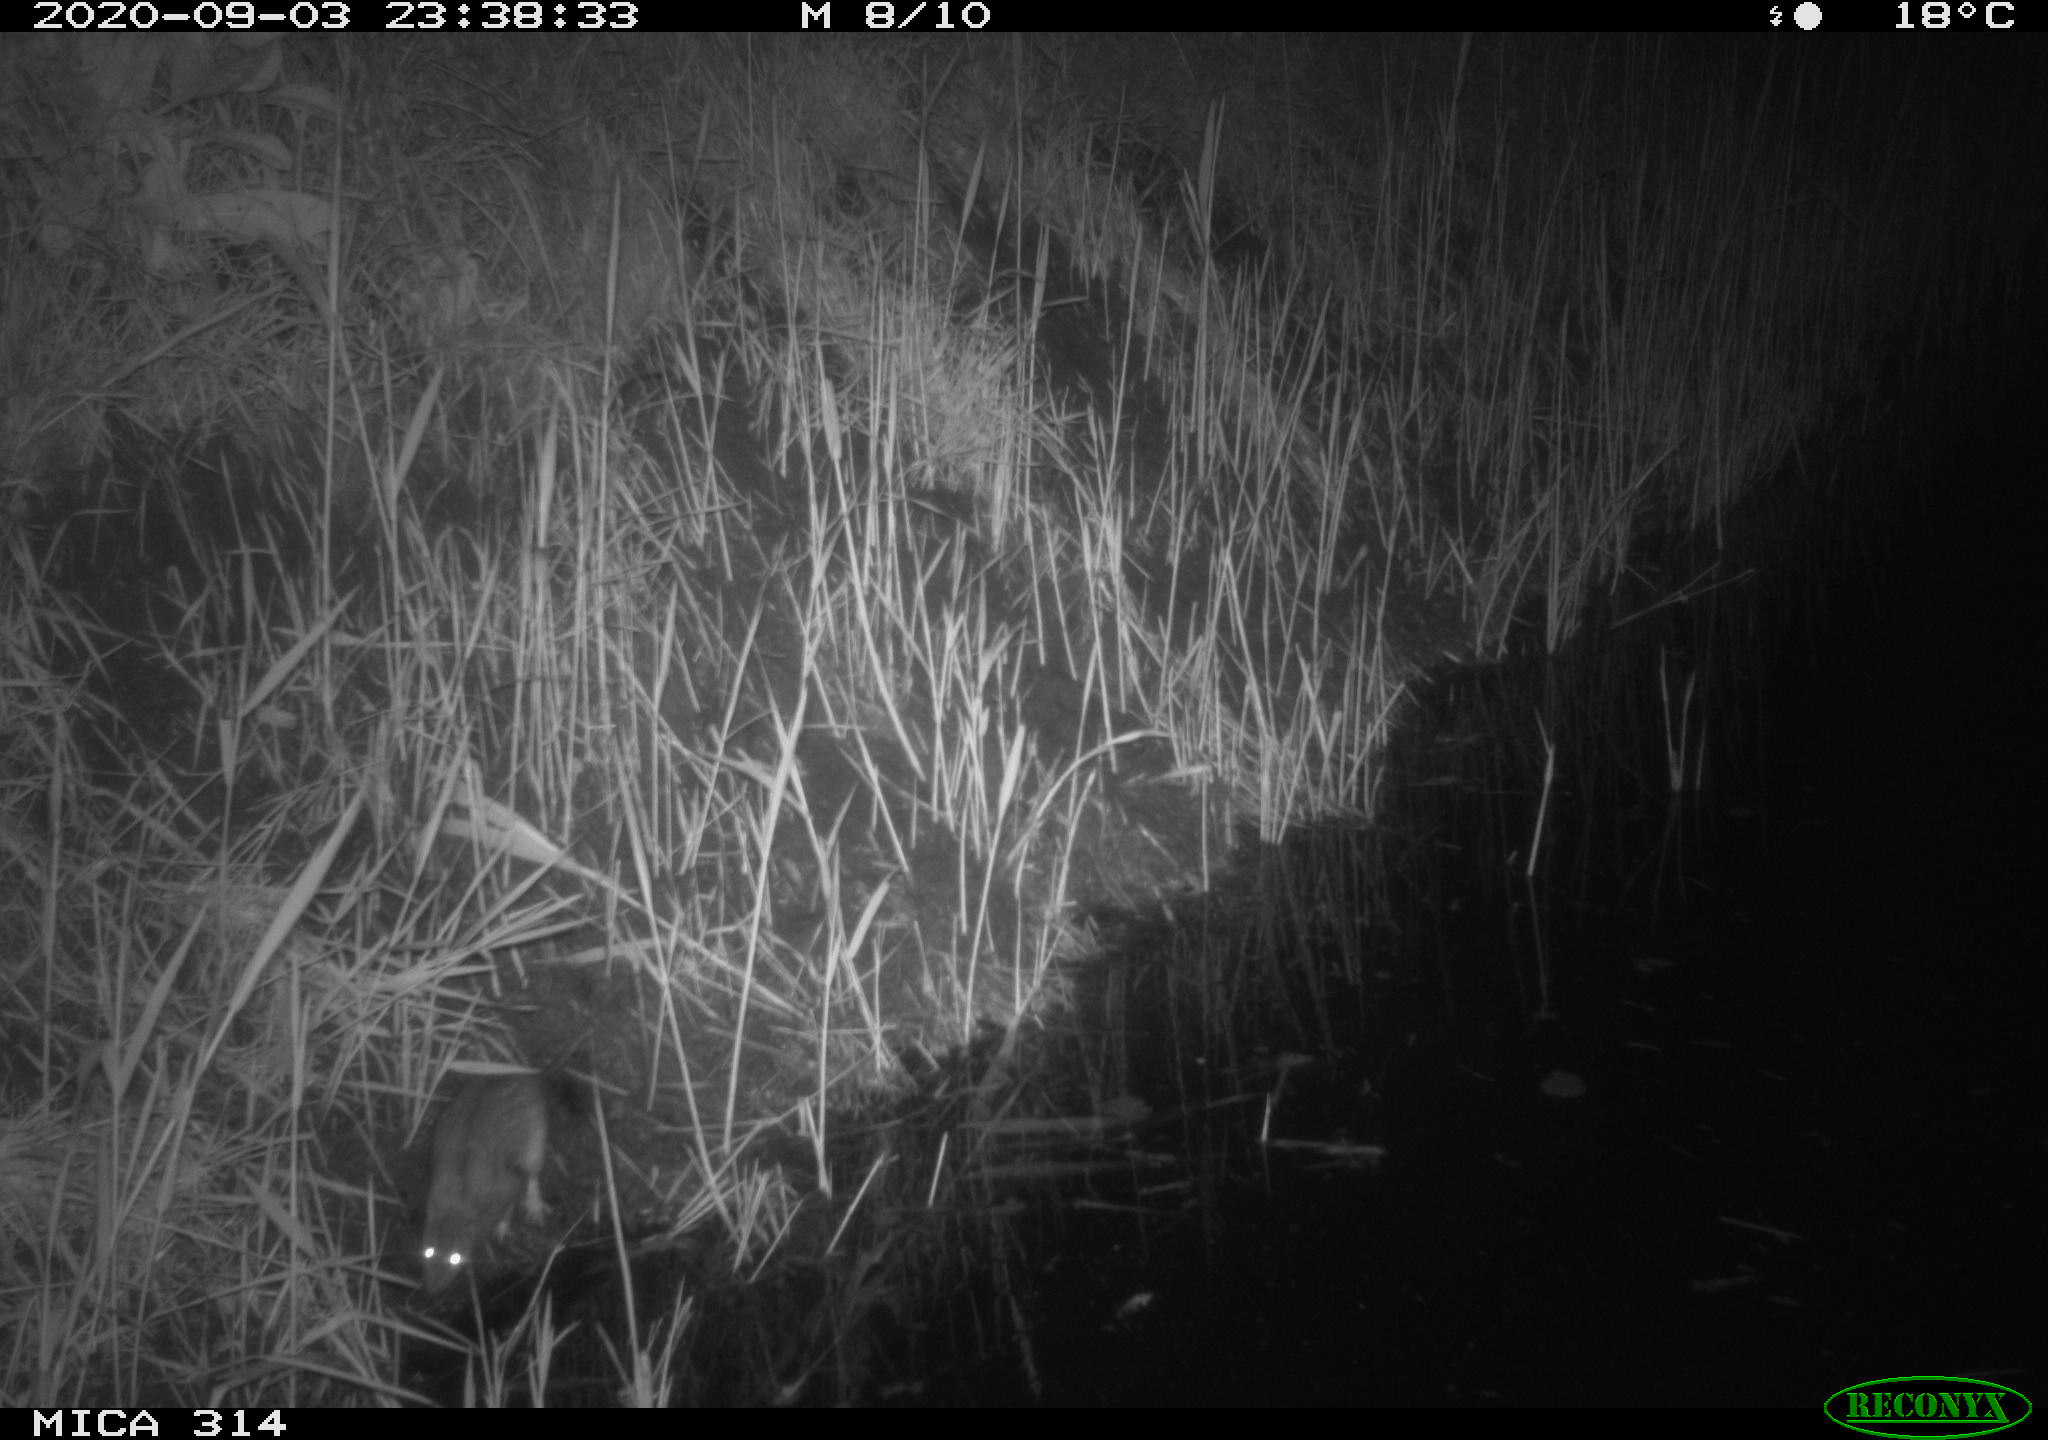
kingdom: Animalia
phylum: Chordata
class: Mammalia
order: Rodentia
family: Muridae
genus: Rattus
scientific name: Rattus norvegicus
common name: Brown rat
